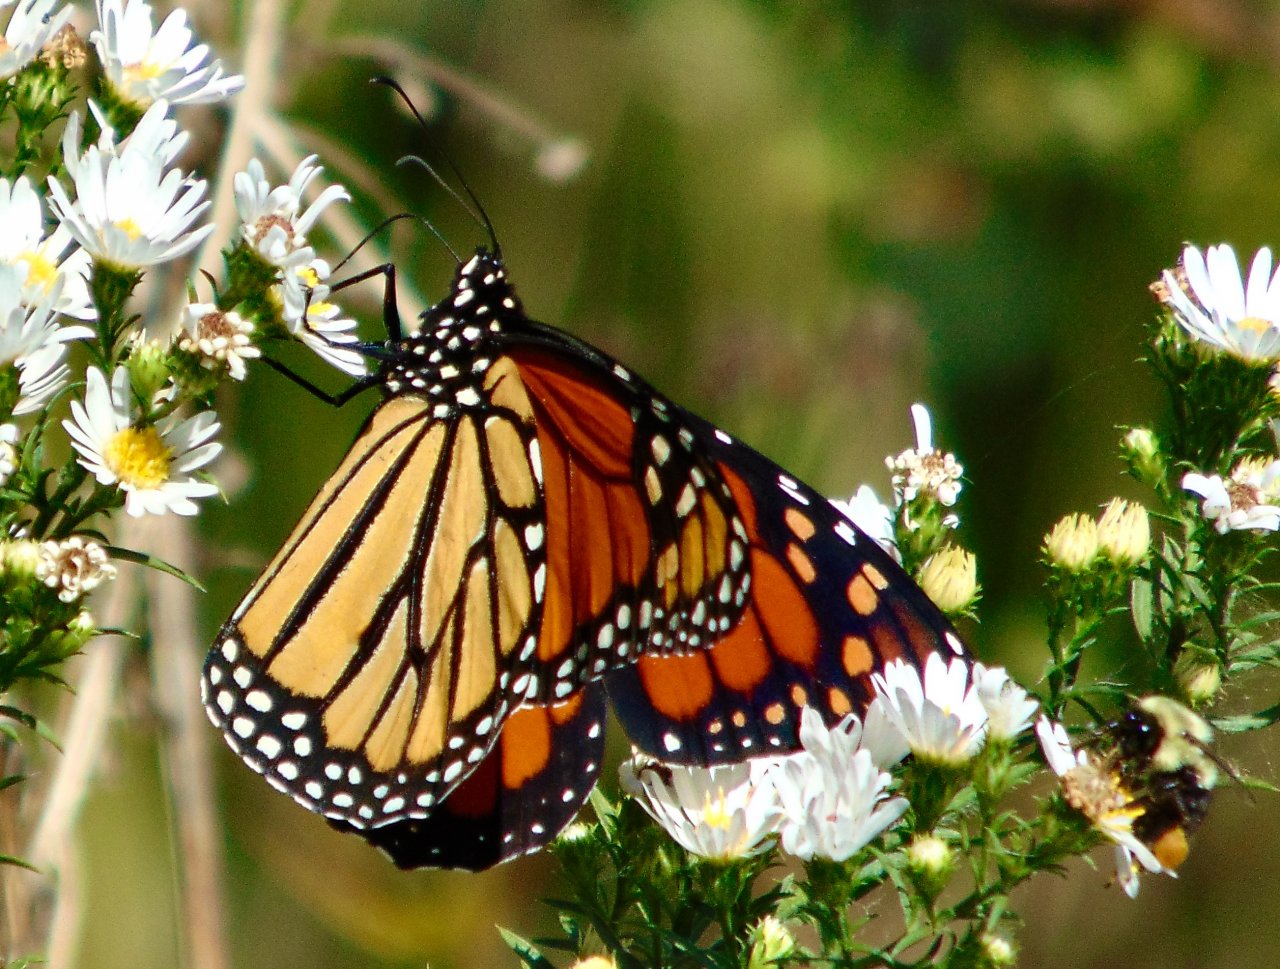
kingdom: Animalia
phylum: Arthropoda
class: Insecta
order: Lepidoptera
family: Nymphalidae
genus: Danaus
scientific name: Danaus plexippus
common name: Monarch
